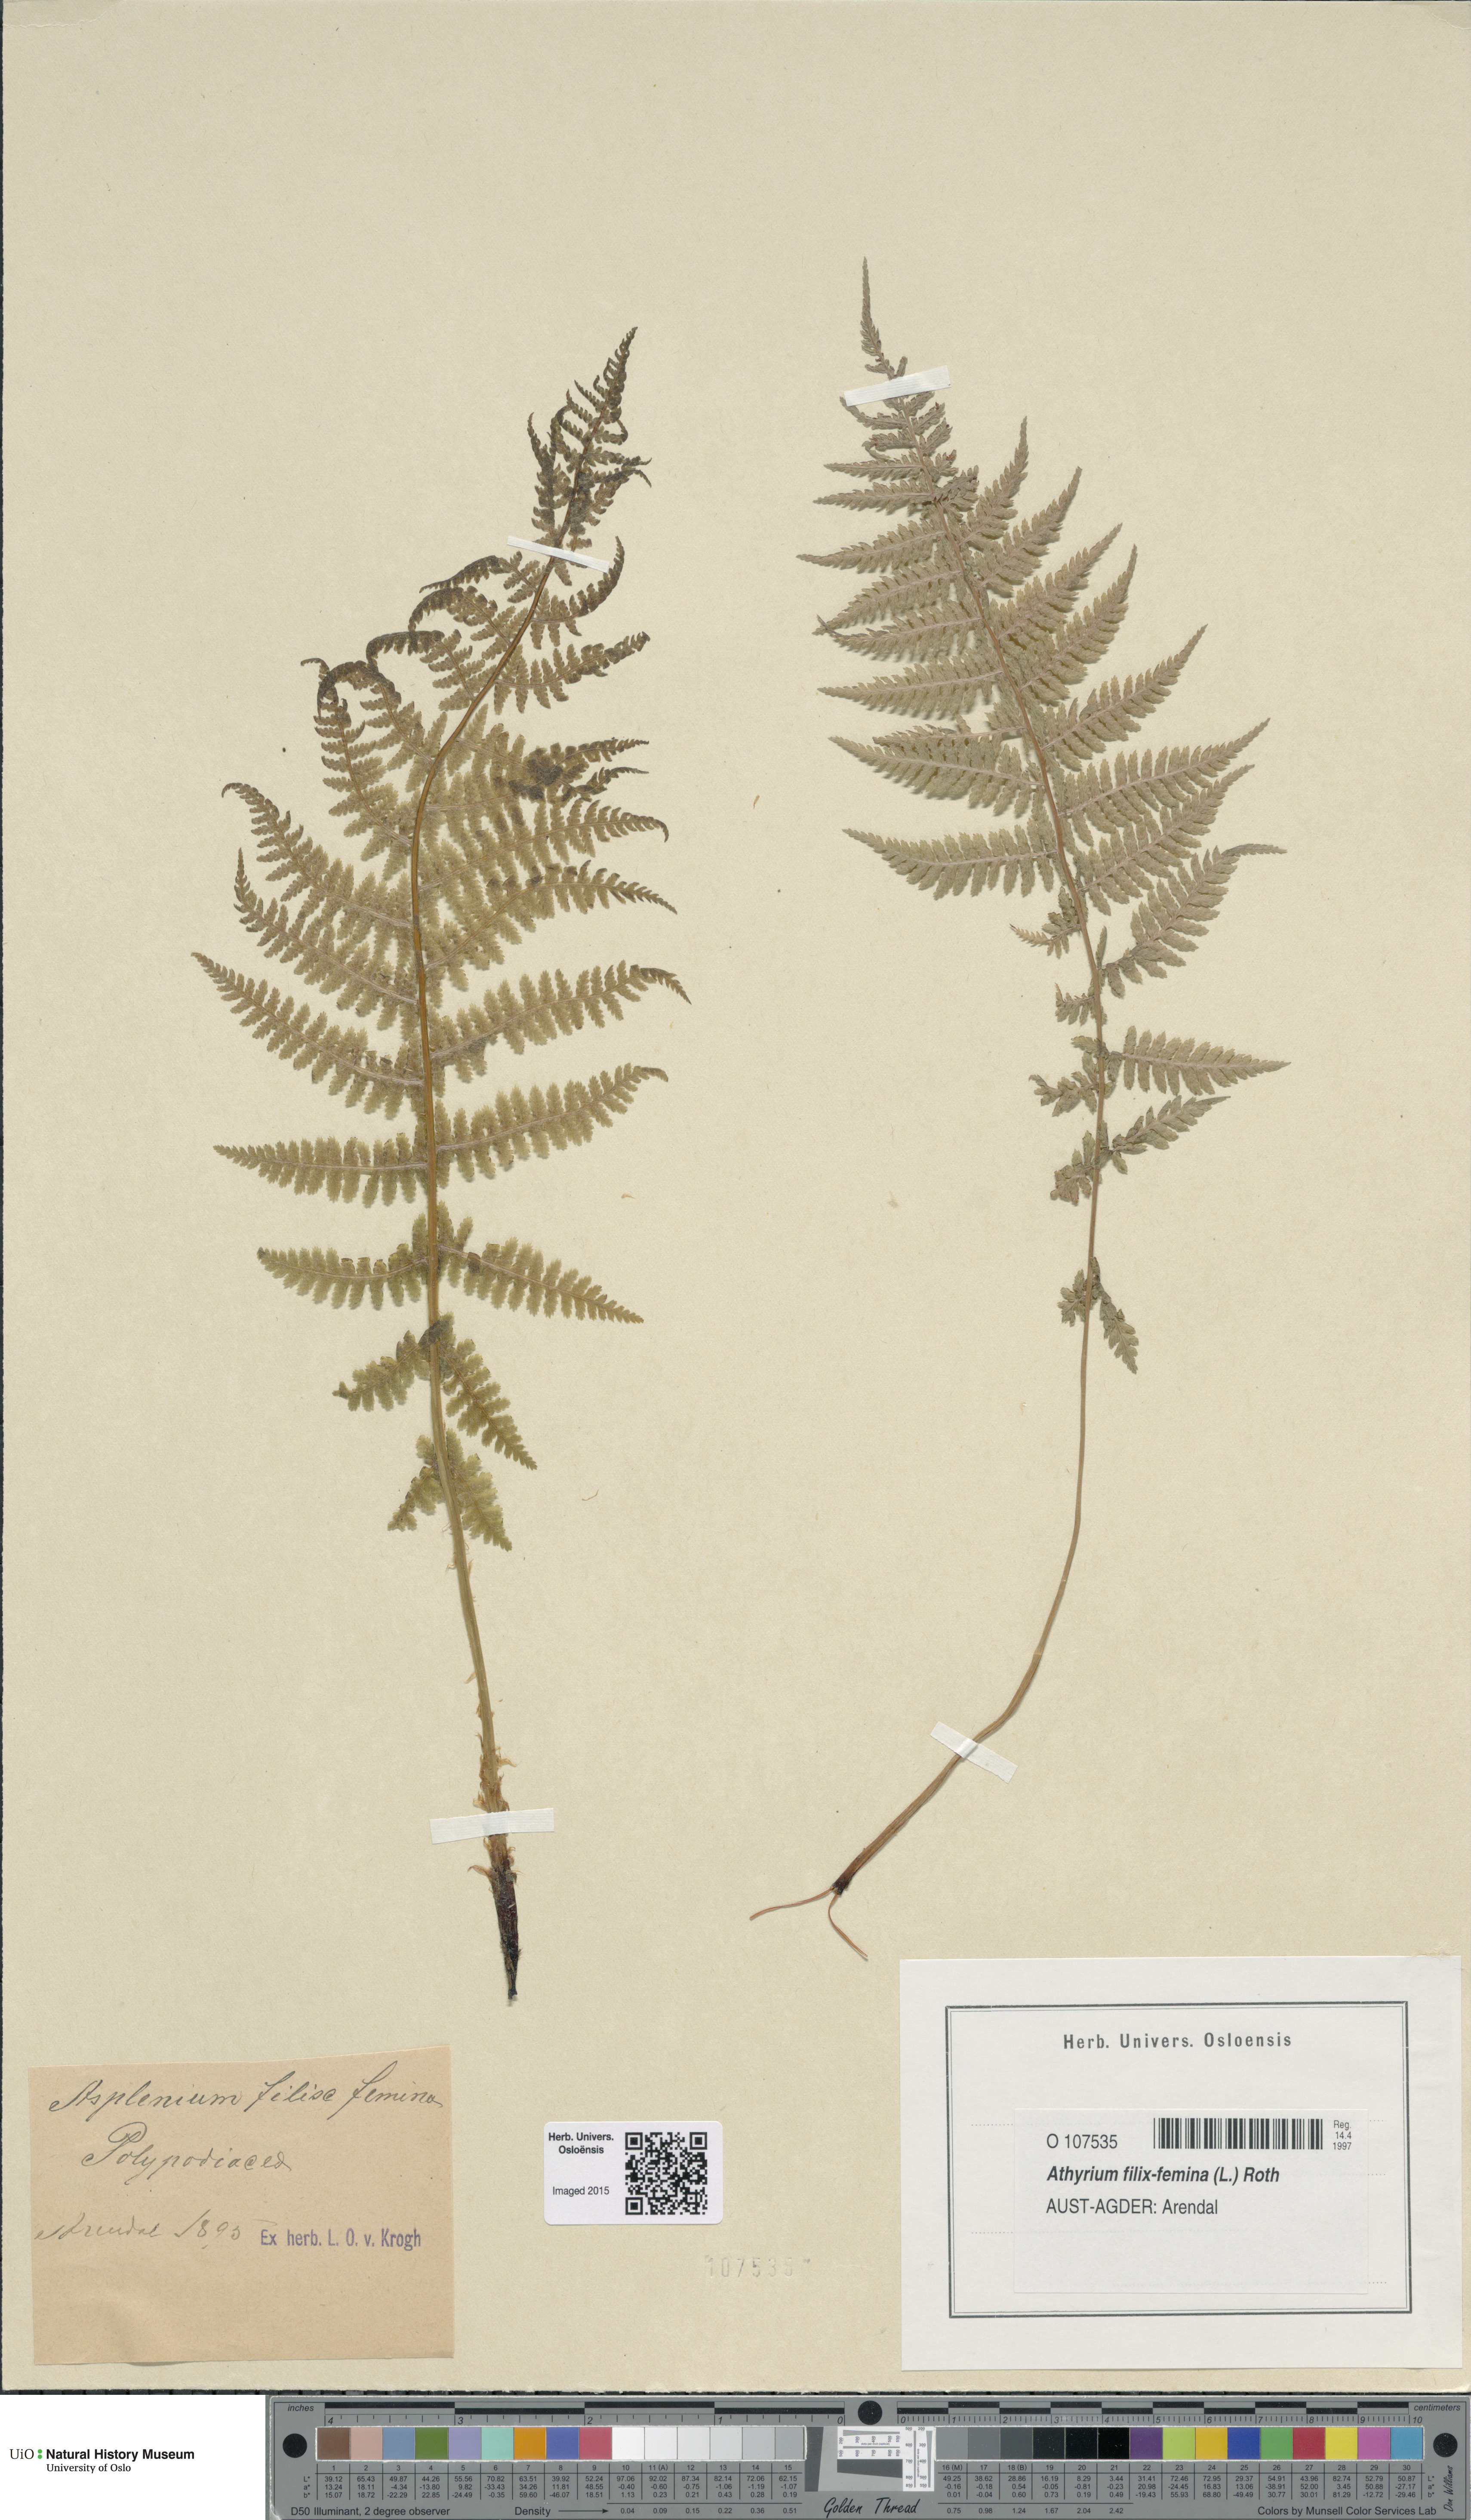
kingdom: Plantae
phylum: Tracheophyta
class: Polypodiopsida
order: Polypodiales
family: Athyriaceae
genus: Athyrium
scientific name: Athyrium filix-femina
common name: Lady fern
